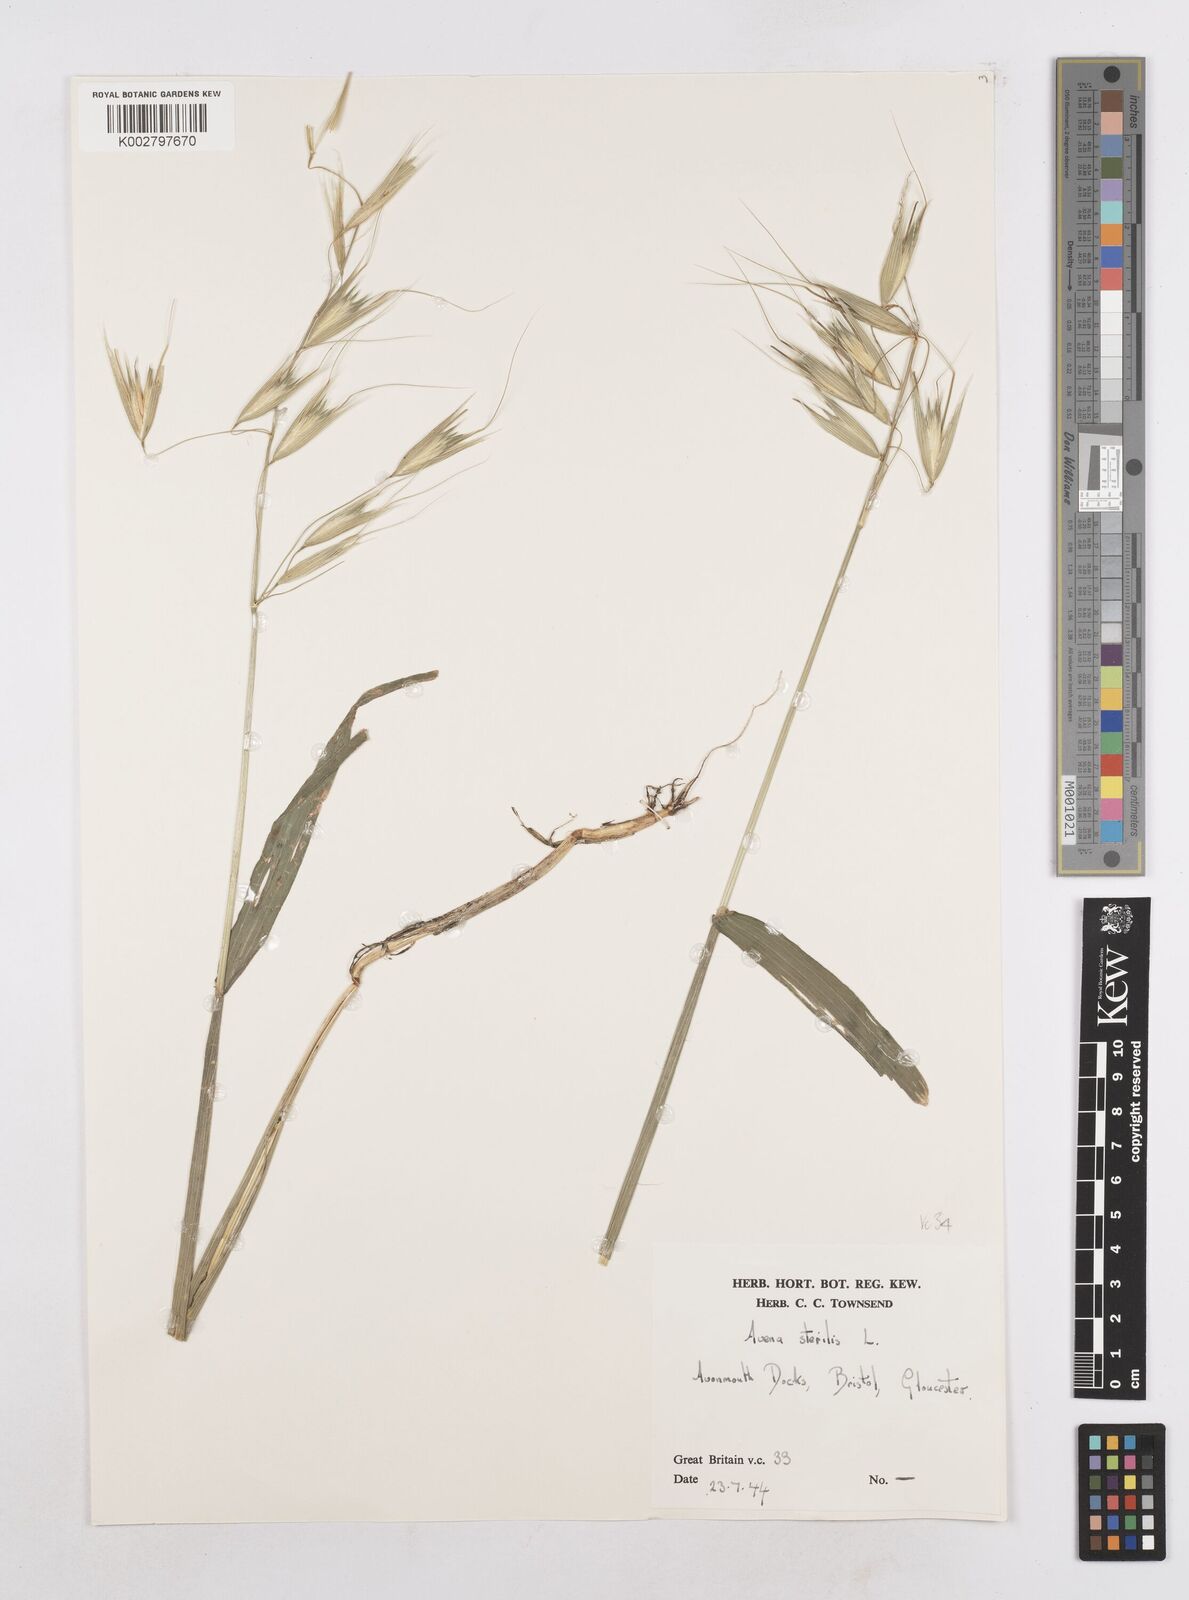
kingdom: Plantae
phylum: Tracheophyta
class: Liliopsida
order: Poales
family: Poaceae
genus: Avena
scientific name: Avena sterilis
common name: Animated oat
